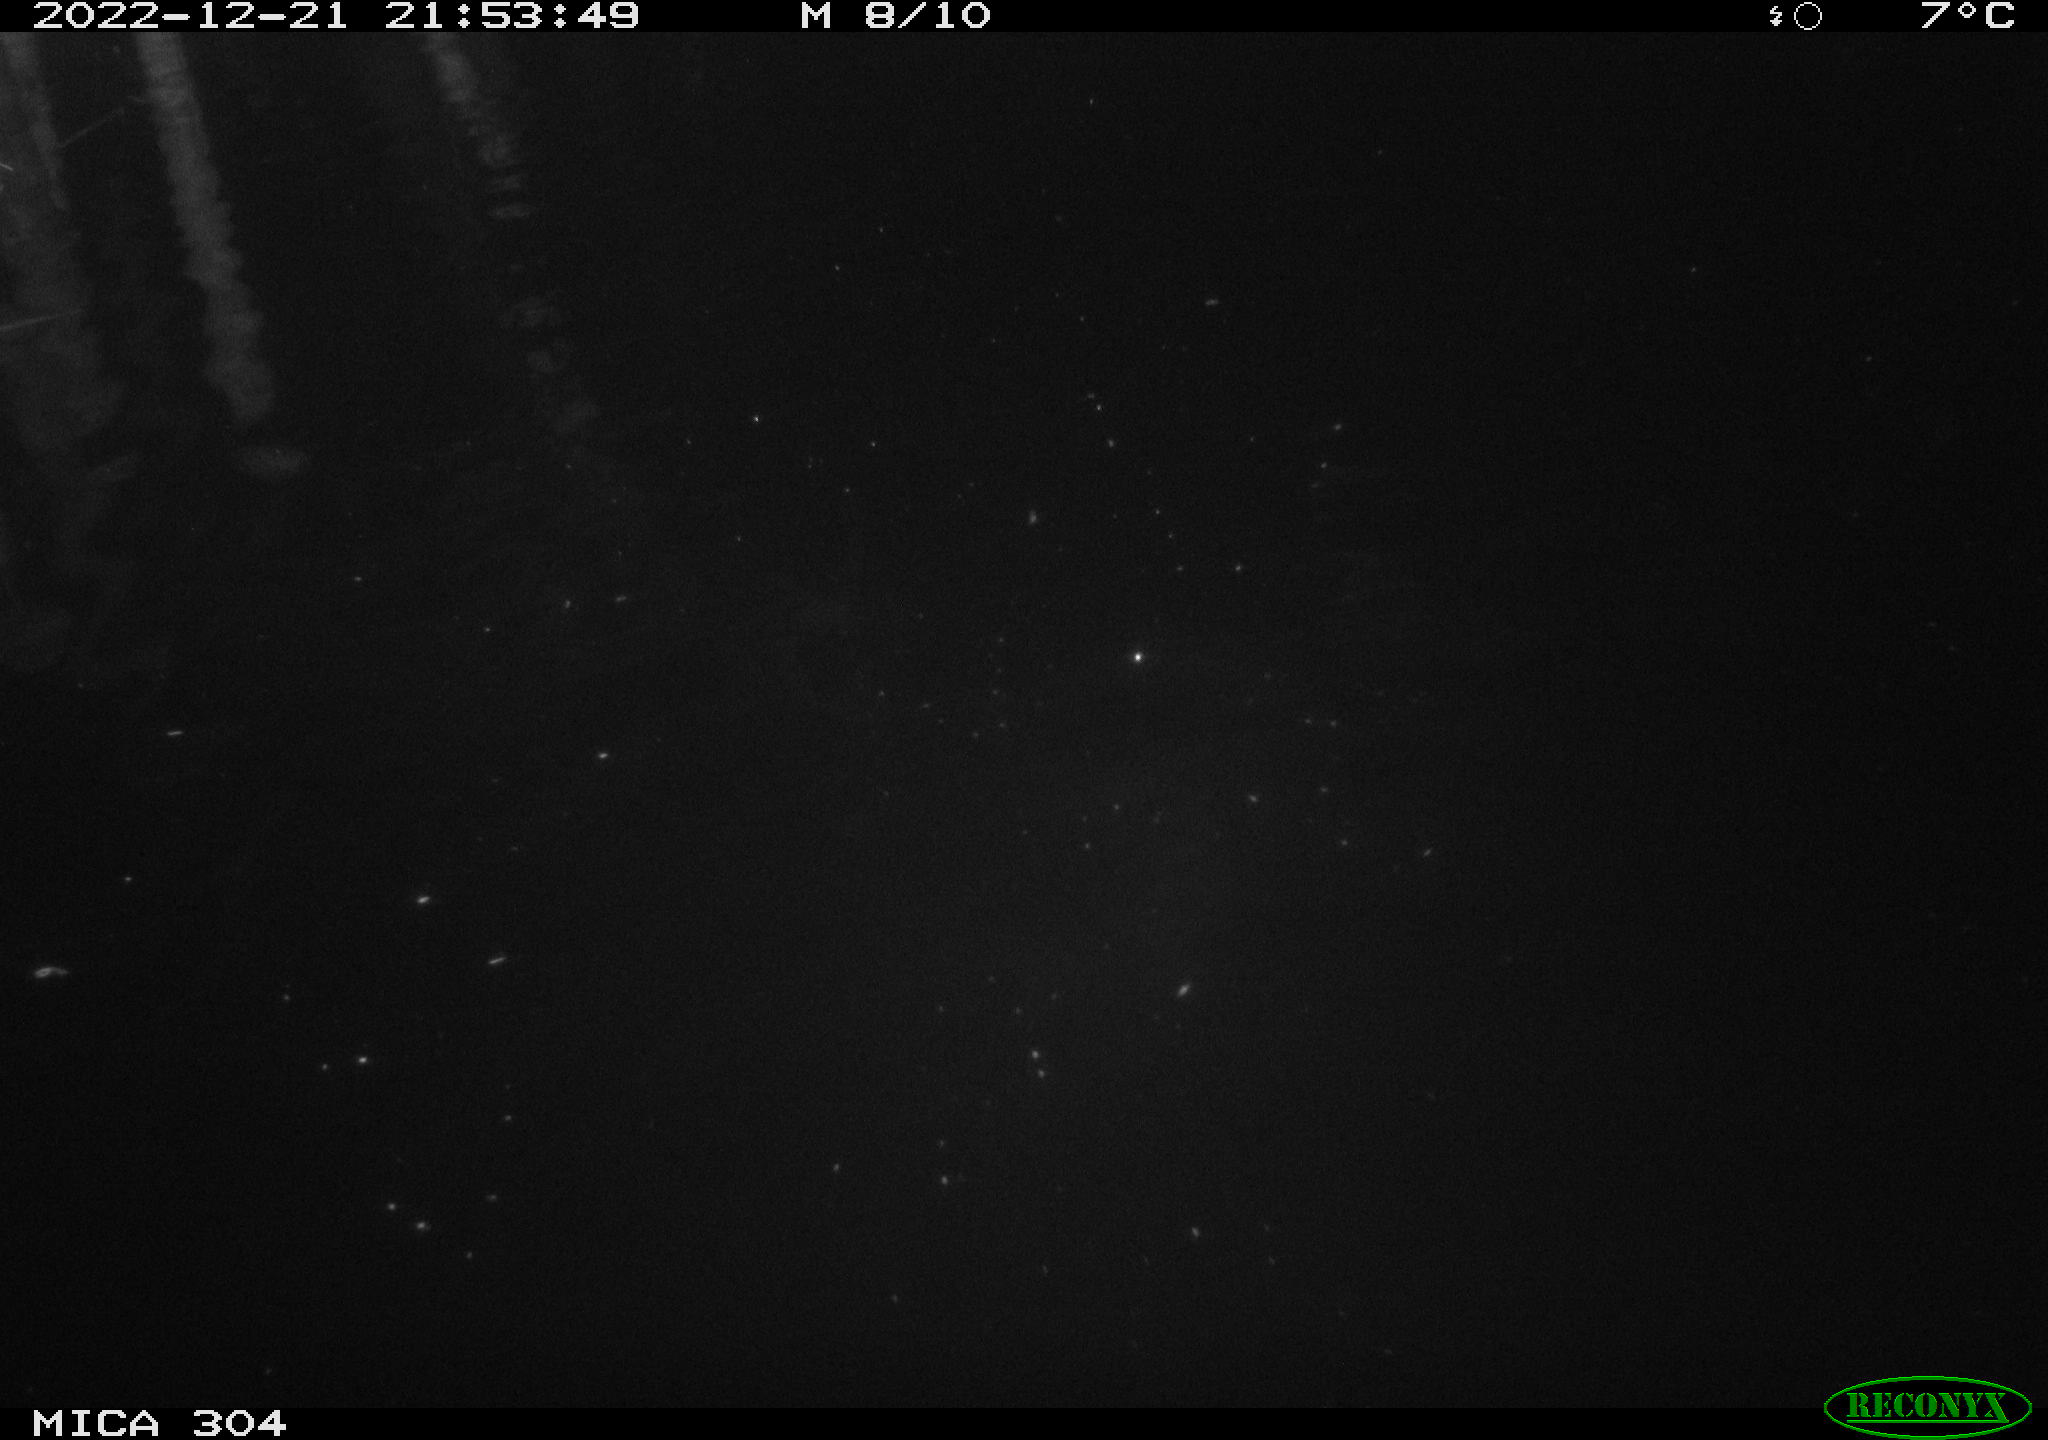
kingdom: Animalia
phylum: Chordata
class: Mammalia
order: Rodentia
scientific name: Rodentia
